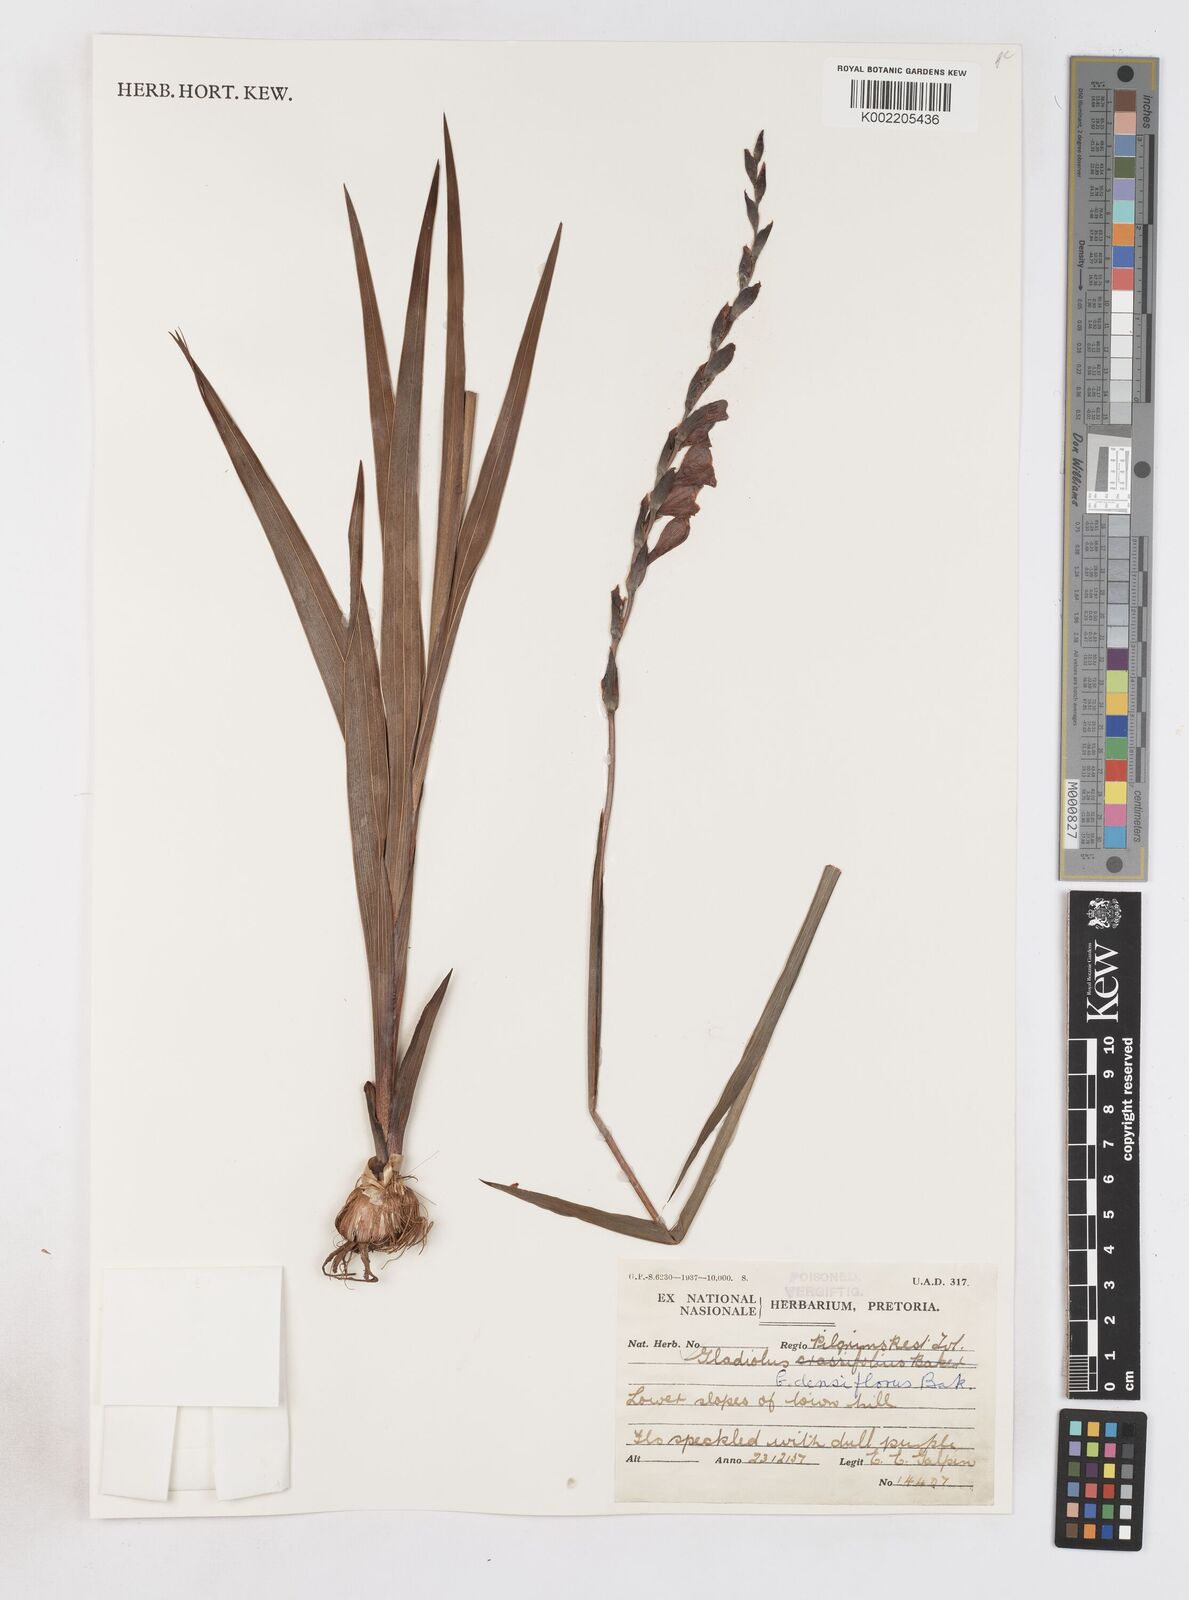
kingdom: Plantae
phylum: Tracheophyta
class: Liliopsida
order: Asparagales
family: Iridaceae
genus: Gladiolus
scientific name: Gladiolus densiflorus
